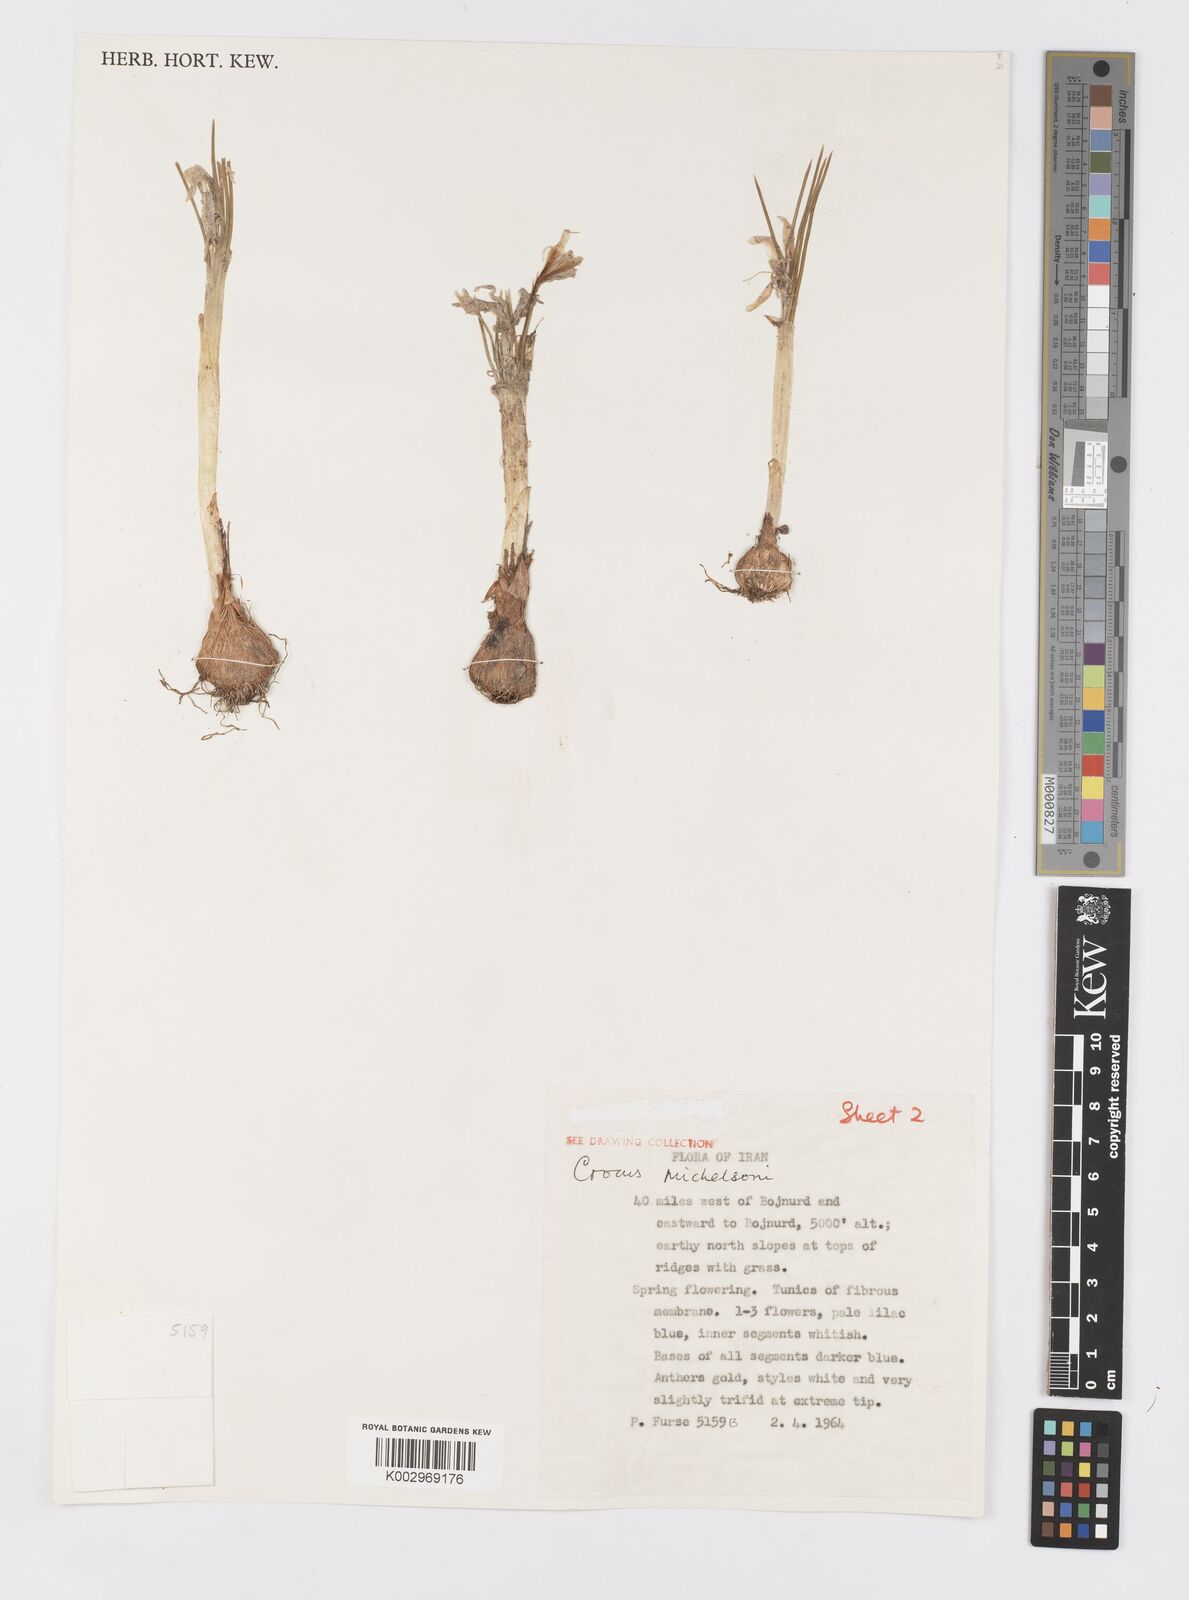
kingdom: Plantae
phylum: Tracheophyta
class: Liliopsida
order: Asparagales
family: Iridaceae
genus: Crocus
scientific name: Crocus michelsonii
